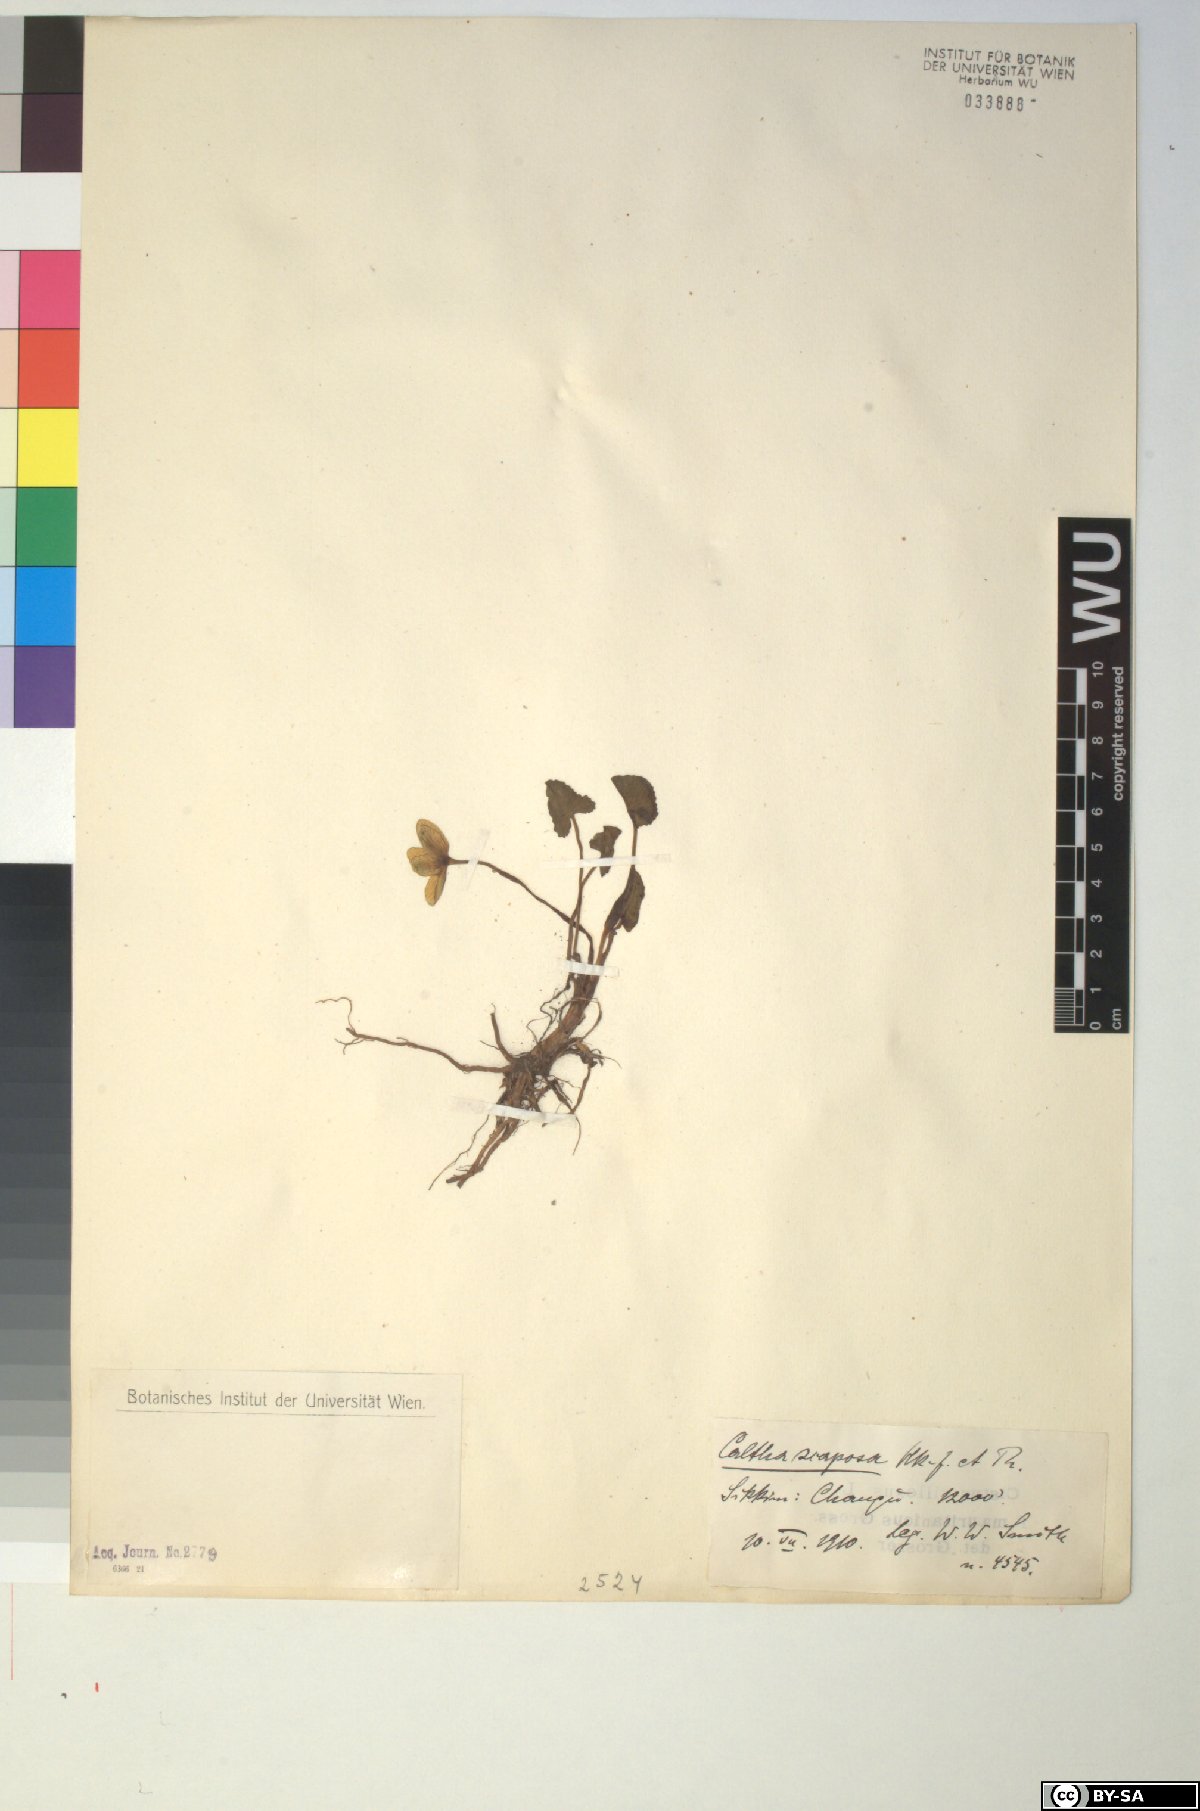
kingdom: Plantae
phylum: Tracheophyta
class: Magnoliopsida
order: Ranunculales
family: Ranunculaceae
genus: Caltha
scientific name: Caltha scaposa
